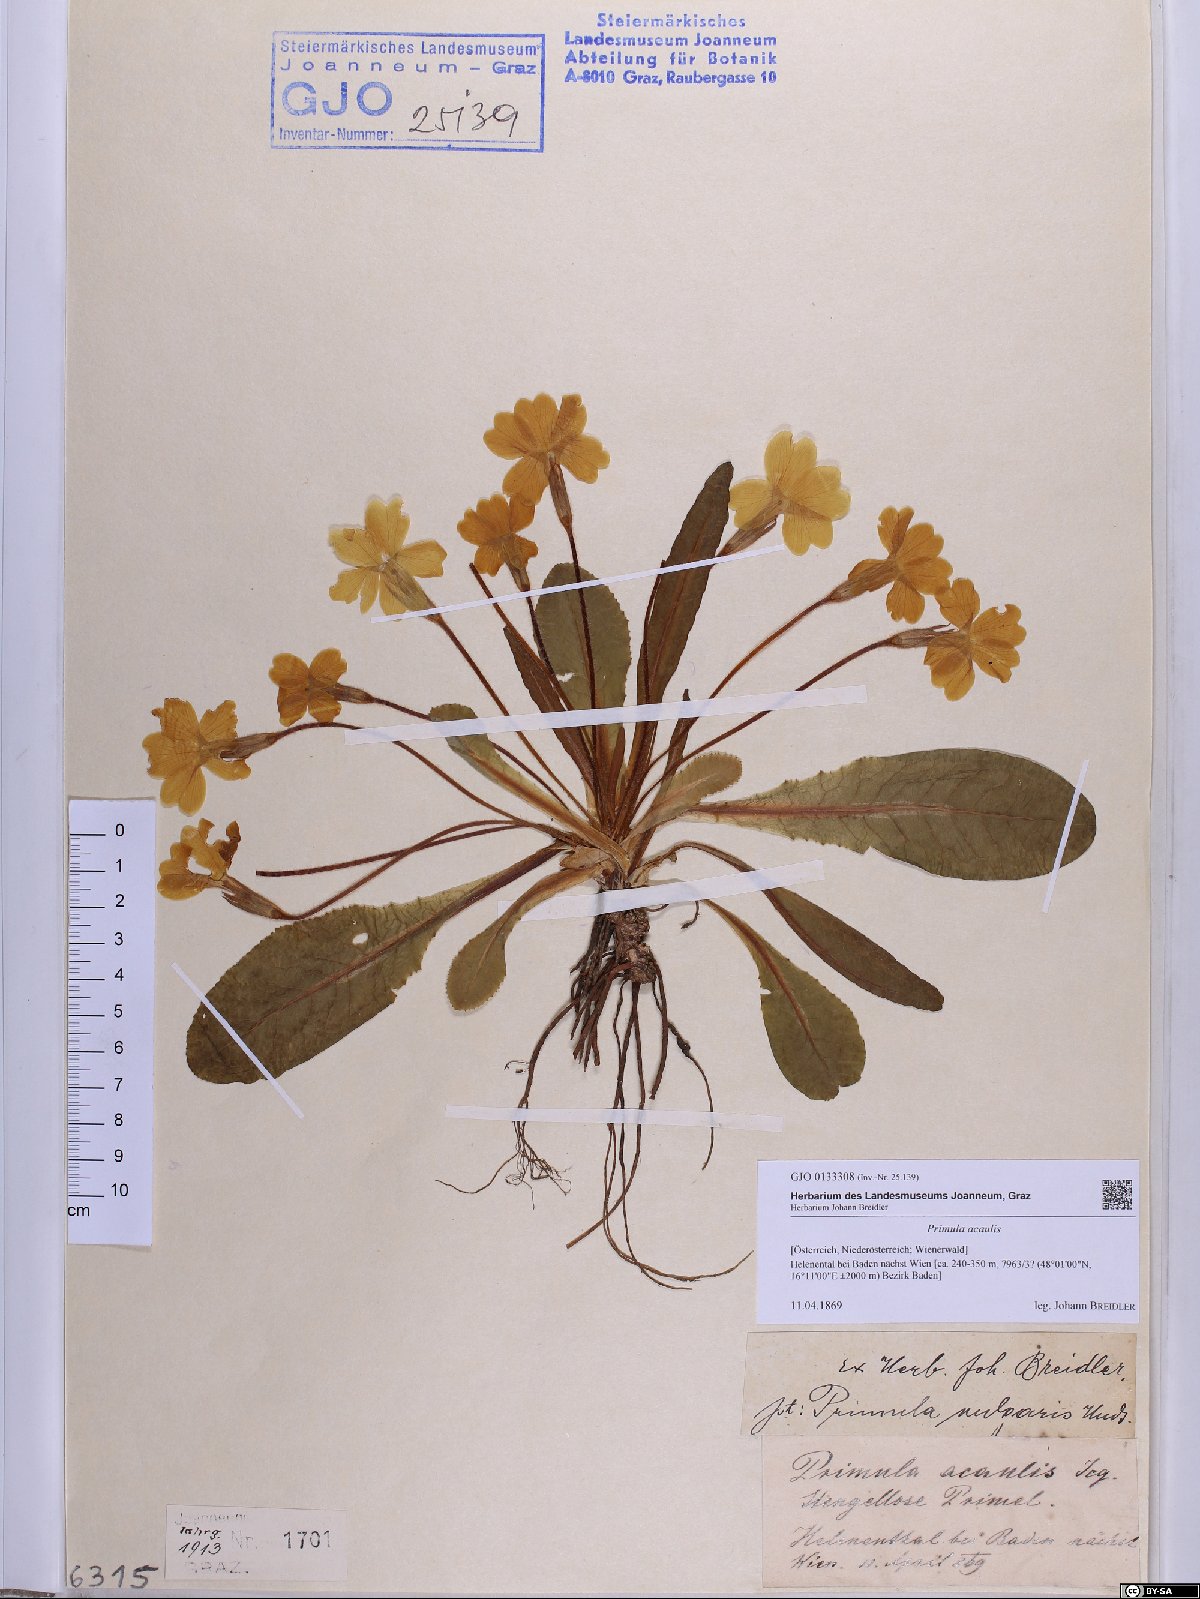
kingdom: Plantae
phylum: Tracheophyta
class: Magnoliopsida
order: Ericales
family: Primulaceae
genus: Primula
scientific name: Primula vulgaris
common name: Primrose
